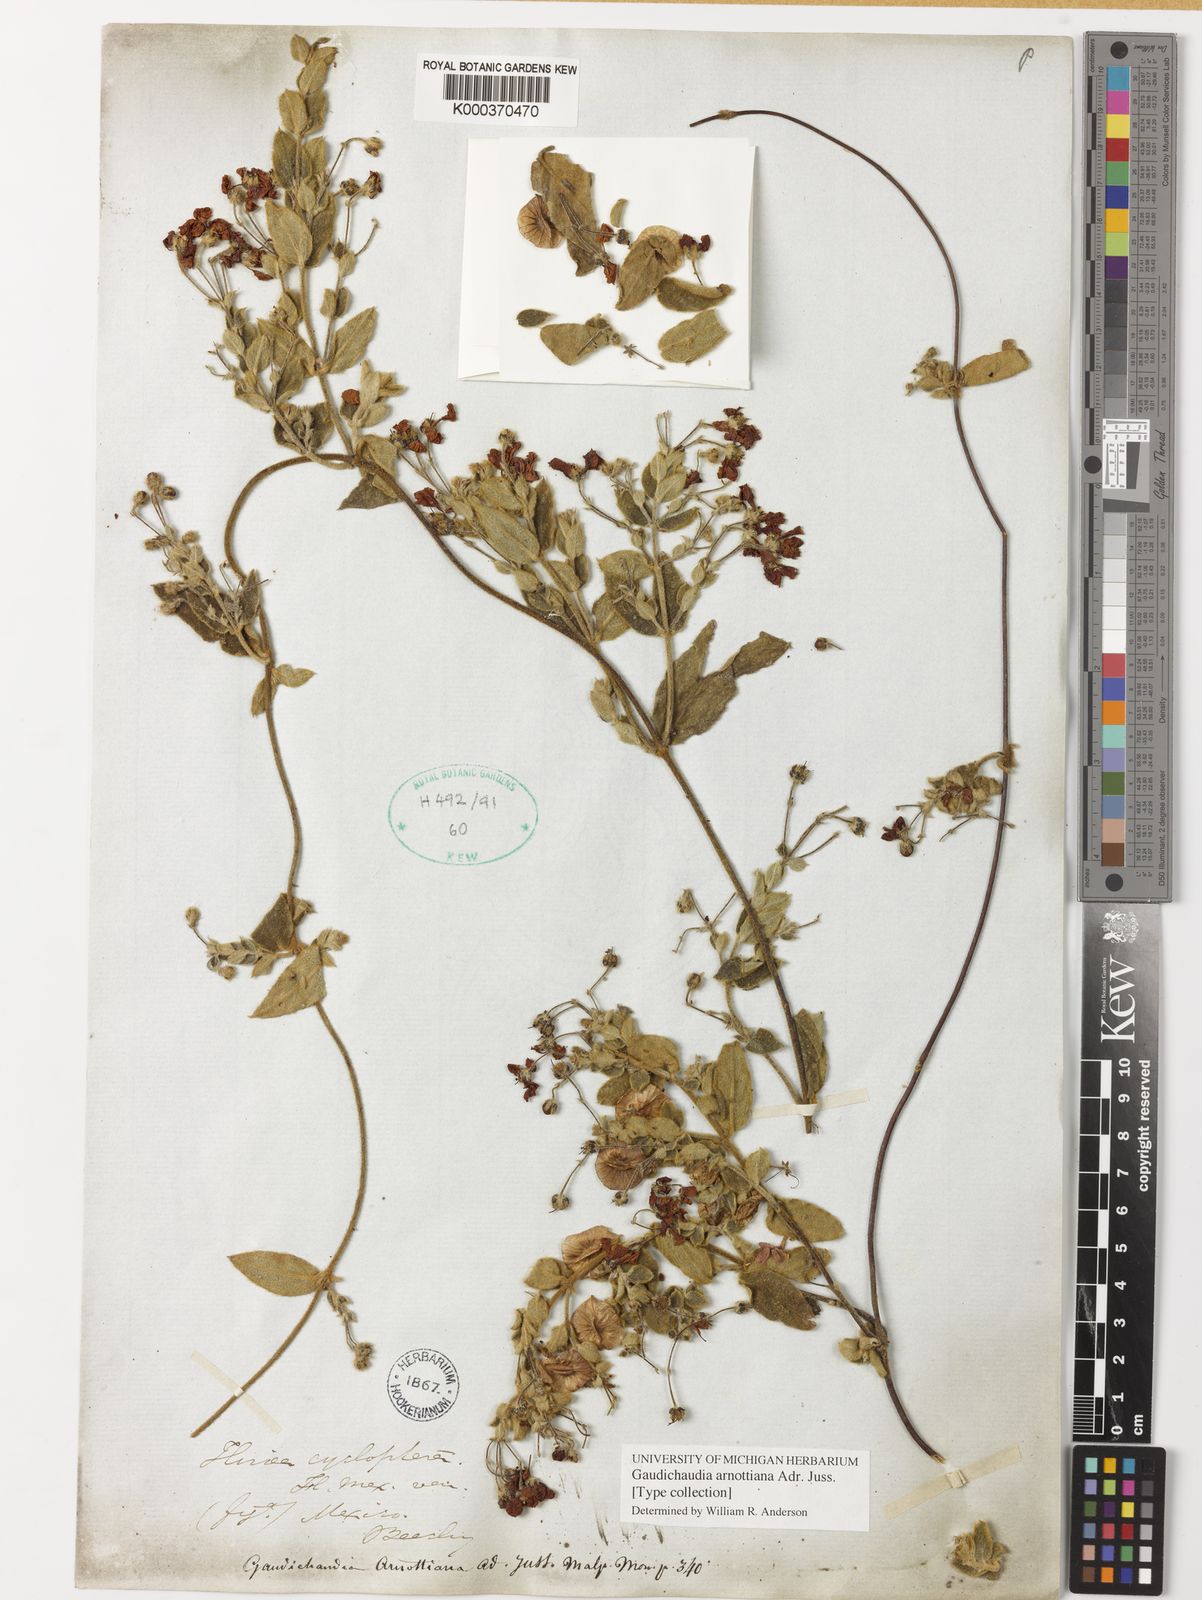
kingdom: Plantae
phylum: Tracheophyta
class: Magnoliopsida
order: Malpighiales
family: Malpighiaceae
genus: Gaudichaudia
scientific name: Gaudichaudia arnottiana
